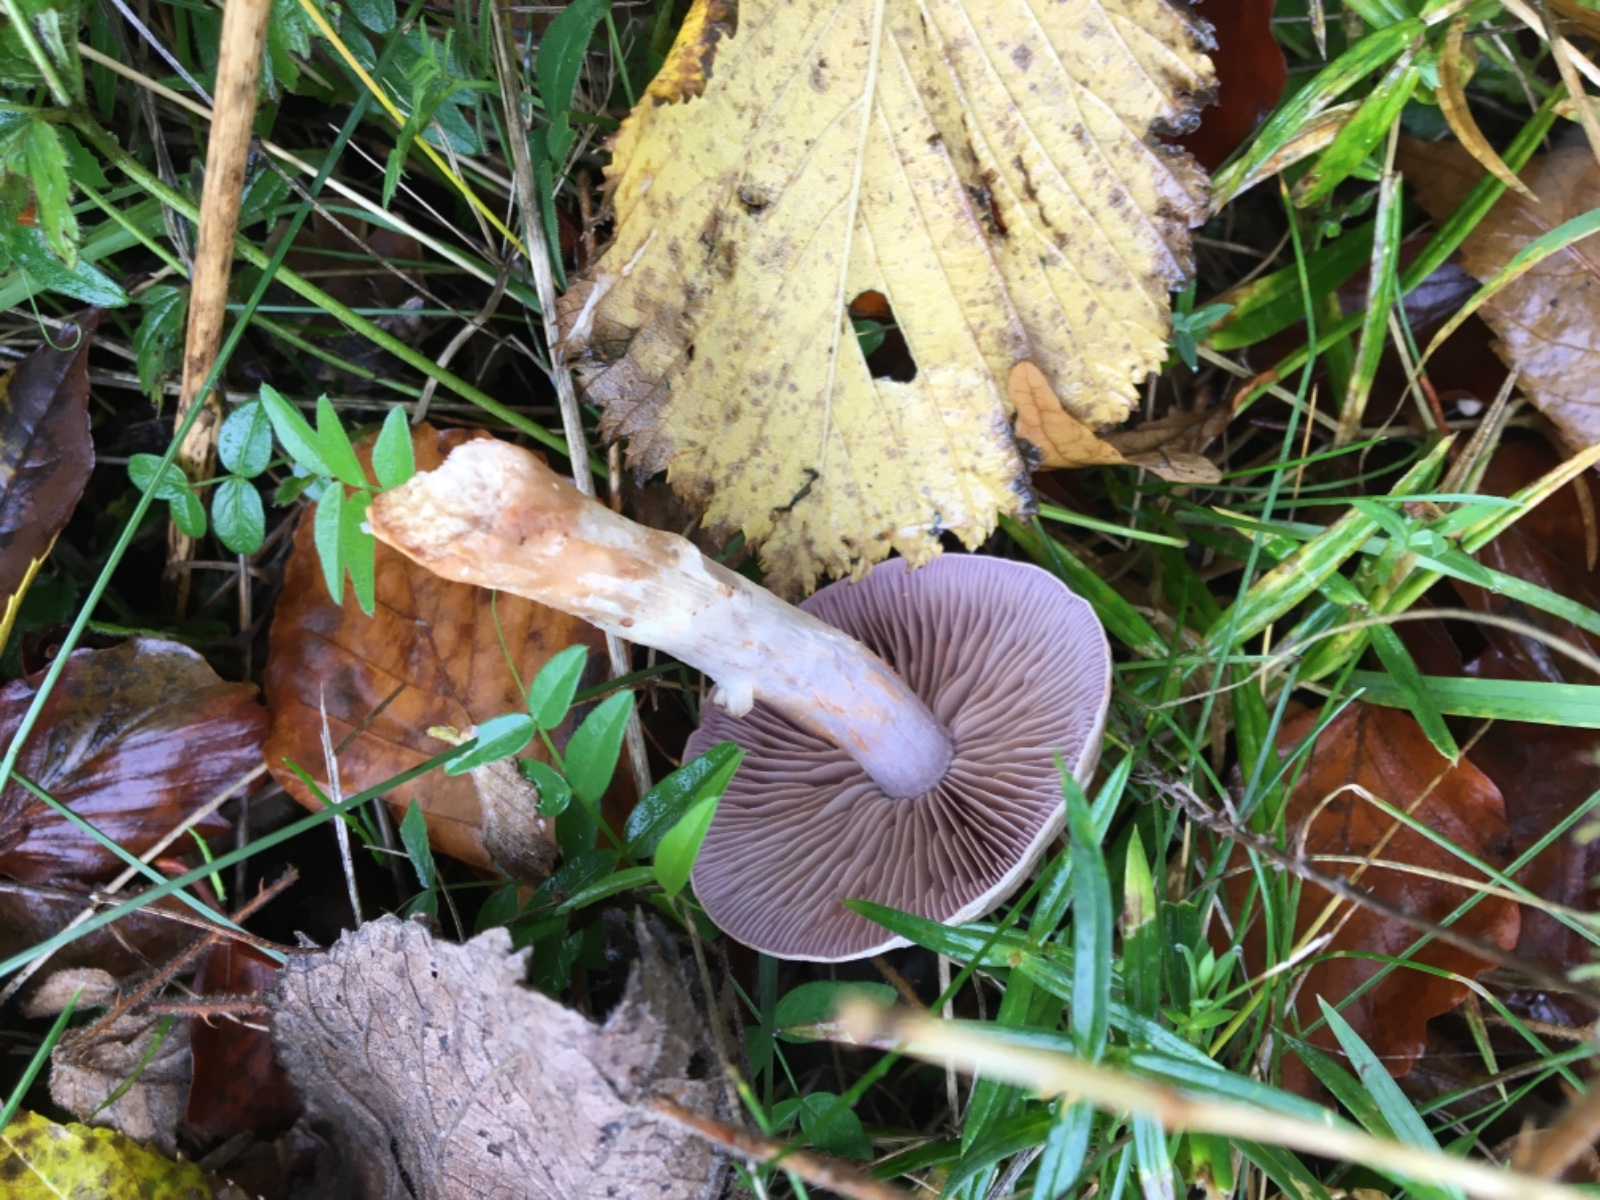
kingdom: Fungi
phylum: Basidiomycota
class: Agaricomycetes
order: Agaricales
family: Cortinariaceae
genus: Cortinarius
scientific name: Cortinarius
